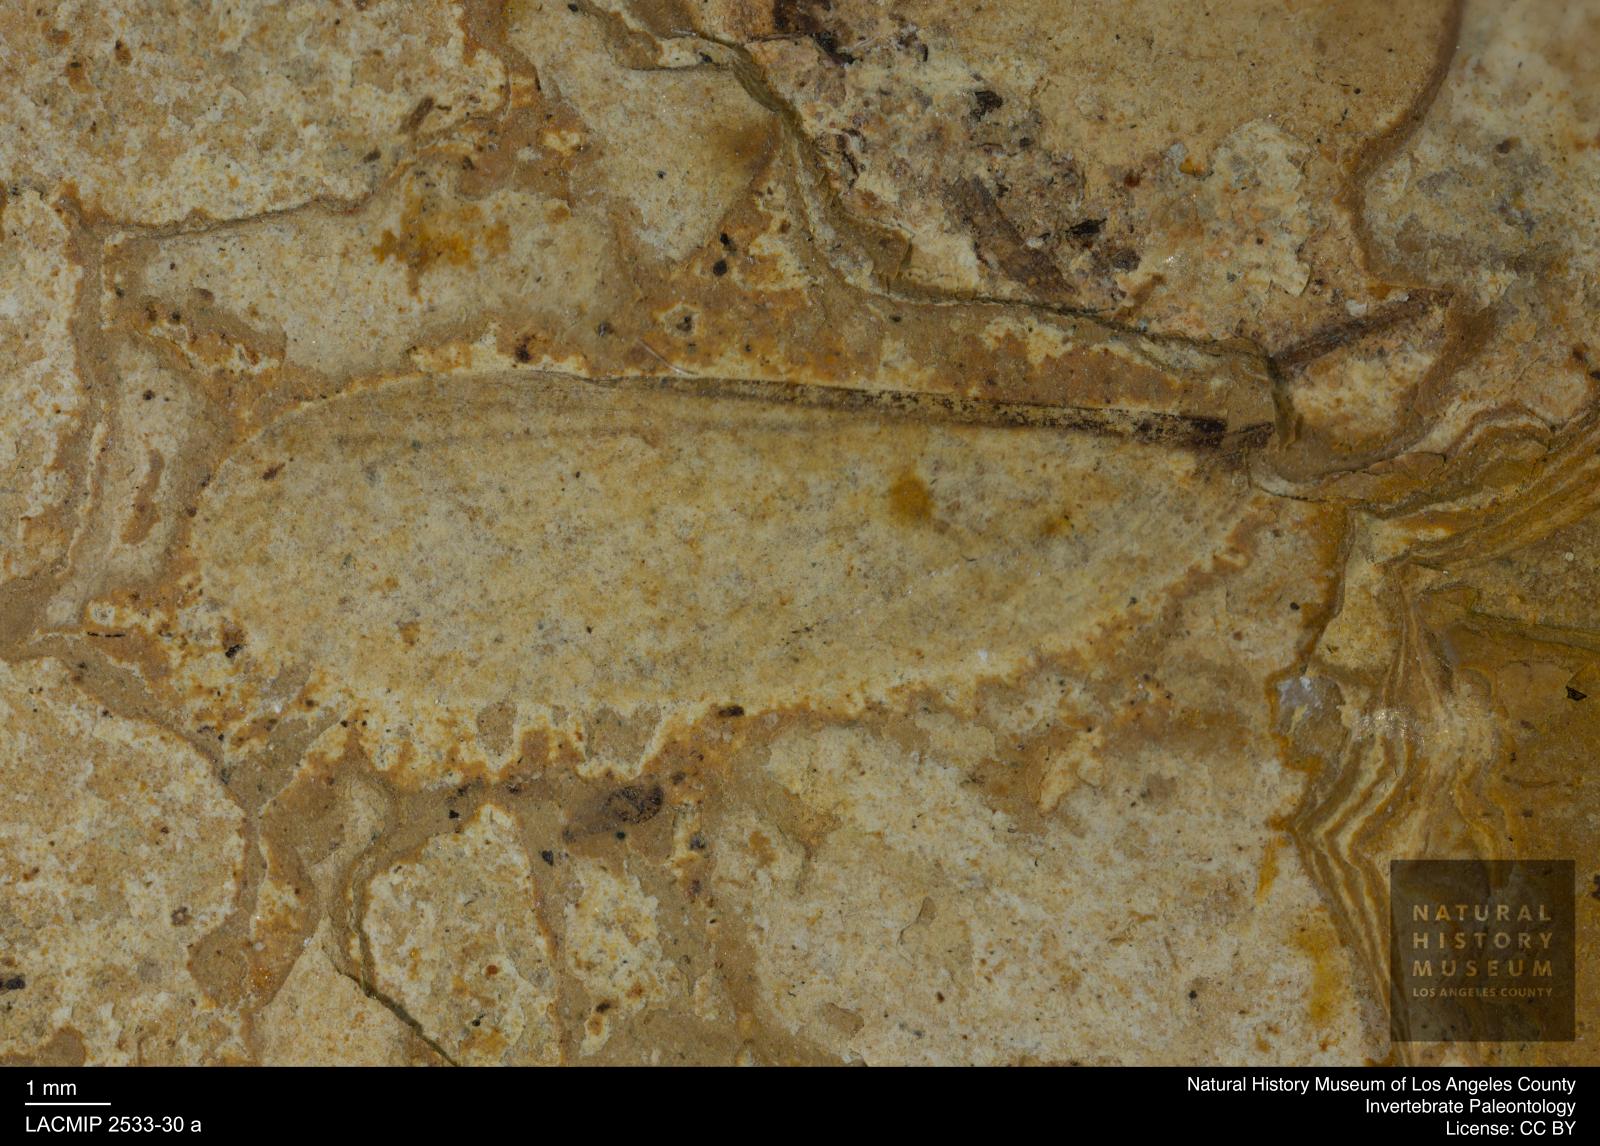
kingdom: Animalia
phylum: Arthropoda
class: Insecta
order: Blattodea
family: Hodotermitidae
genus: Ulmeriella
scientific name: Ulmeriella bauckhorni
